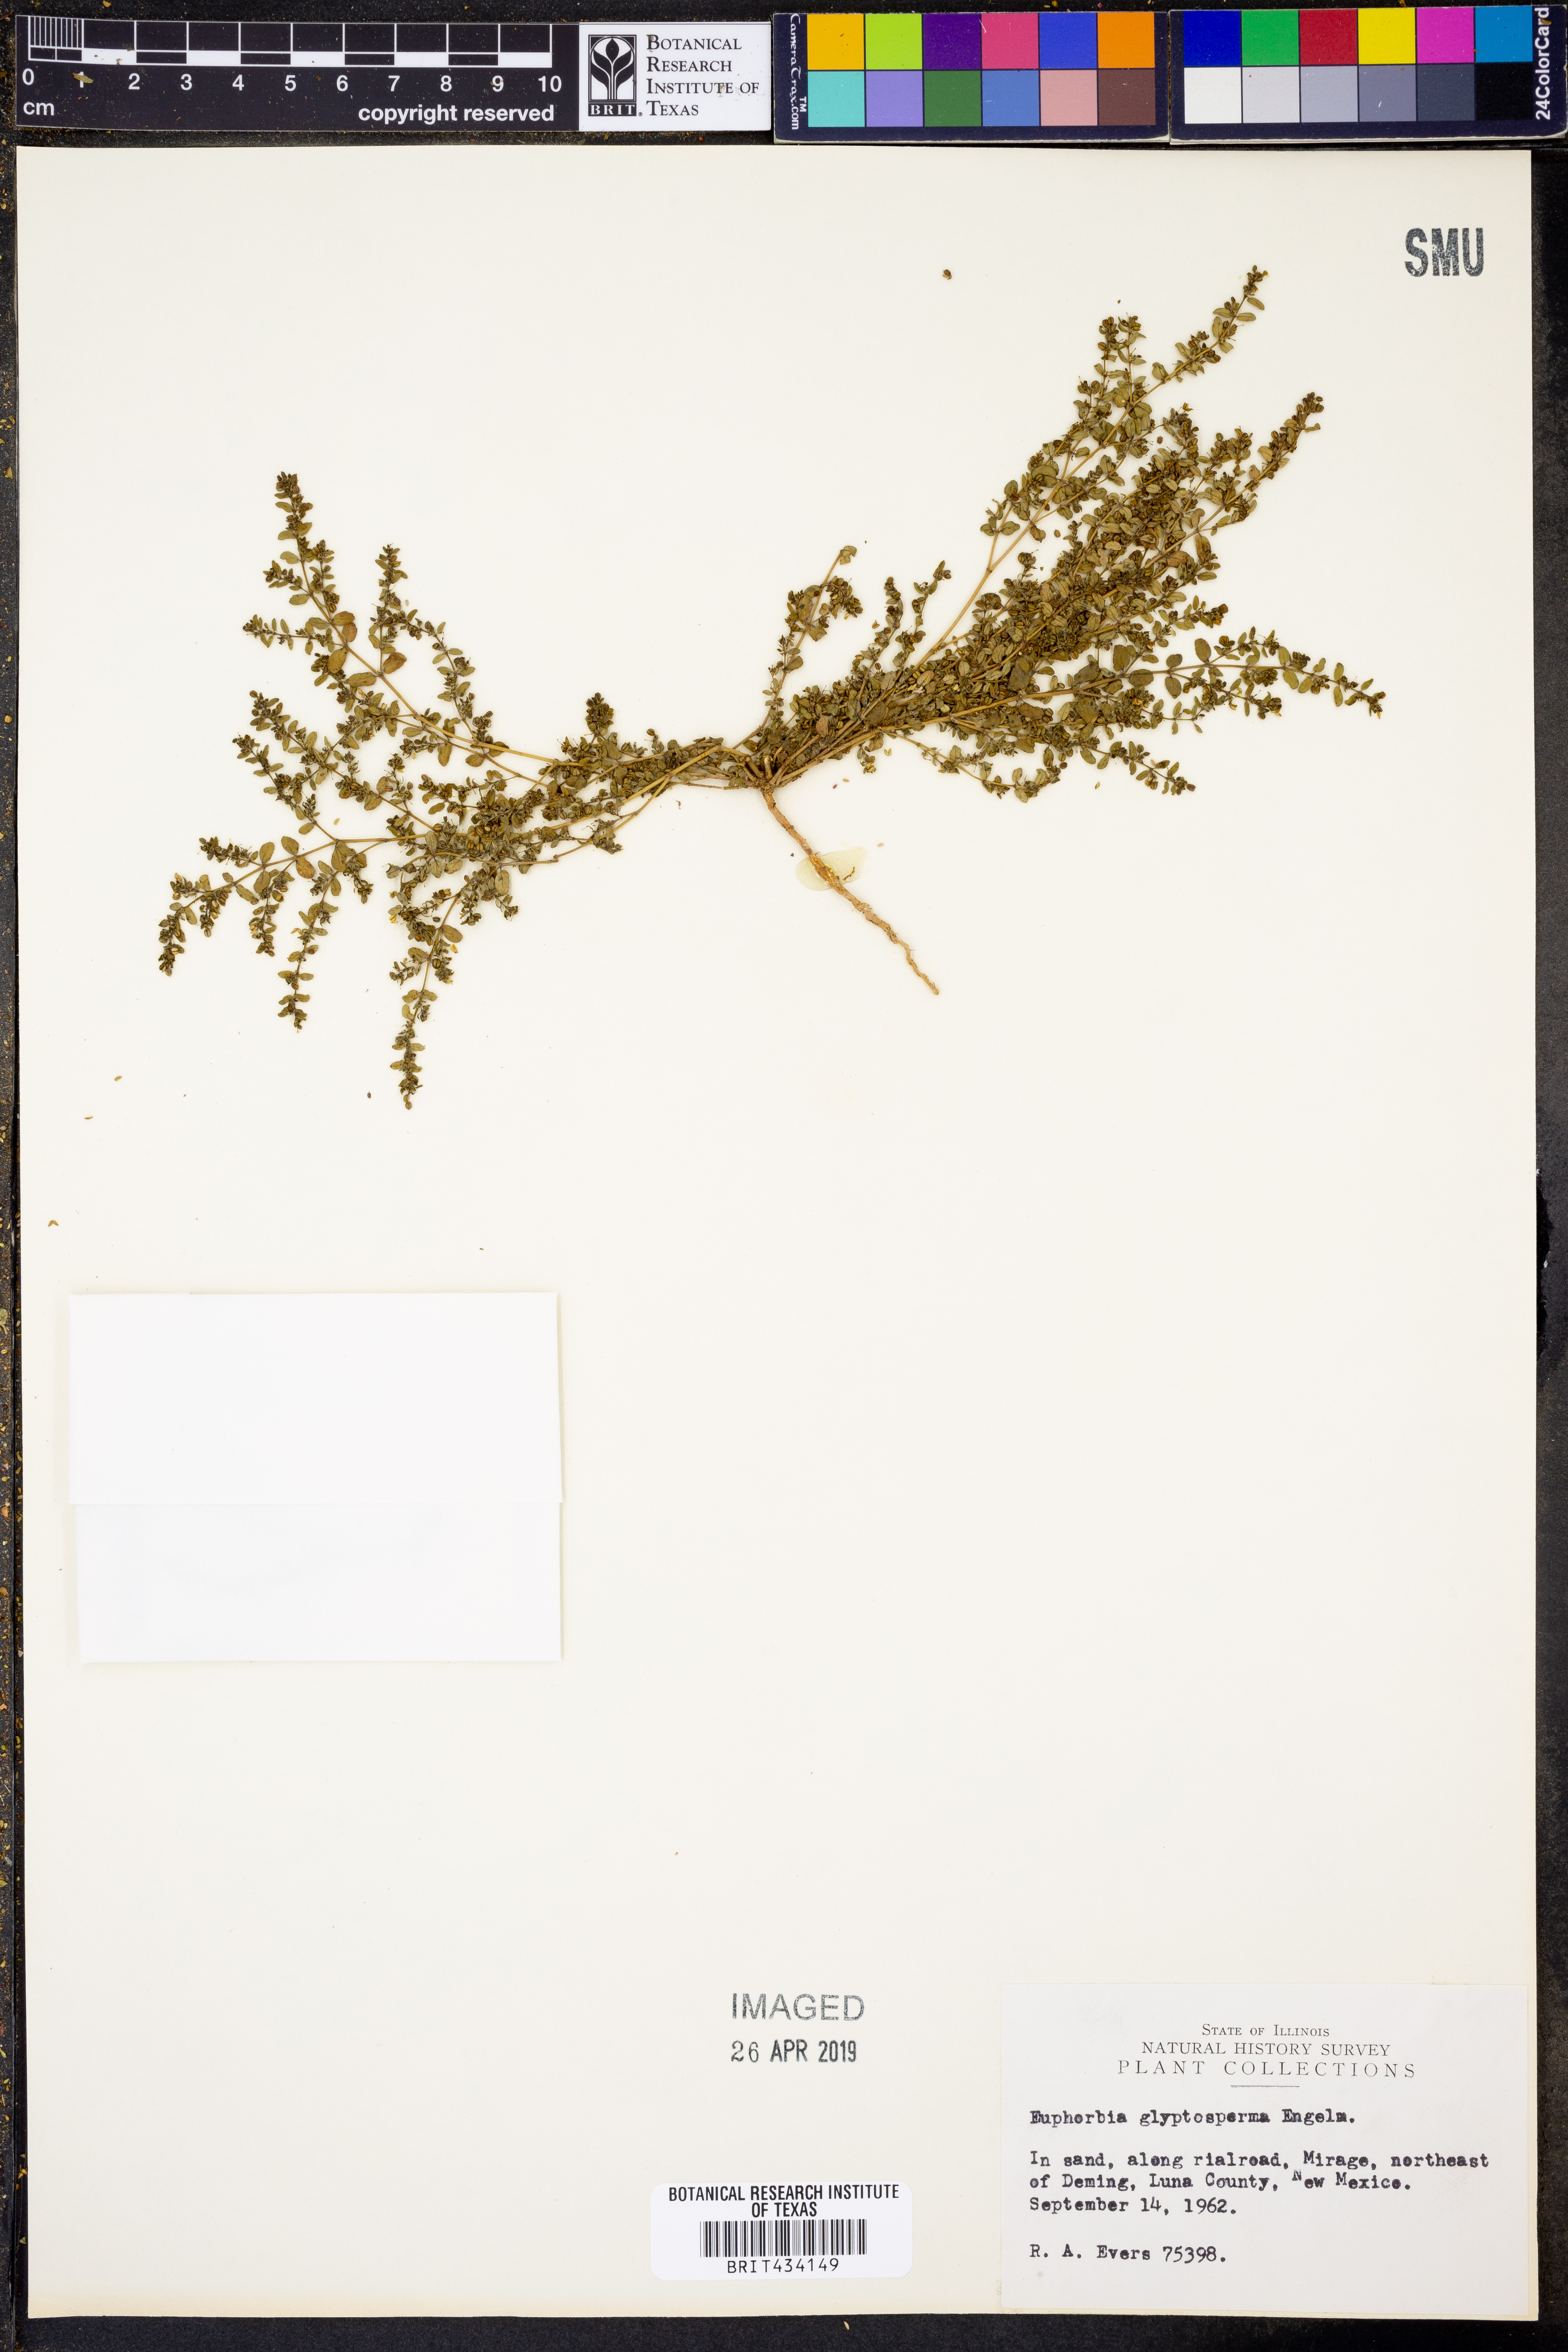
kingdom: Plantae
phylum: Tracheophyta
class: Magnoliopsida
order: Malpighiales
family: Euphorbiaceae
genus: Euphorbia
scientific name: Euphorbia glyptosperma
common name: Corrugate-seeded spurge
